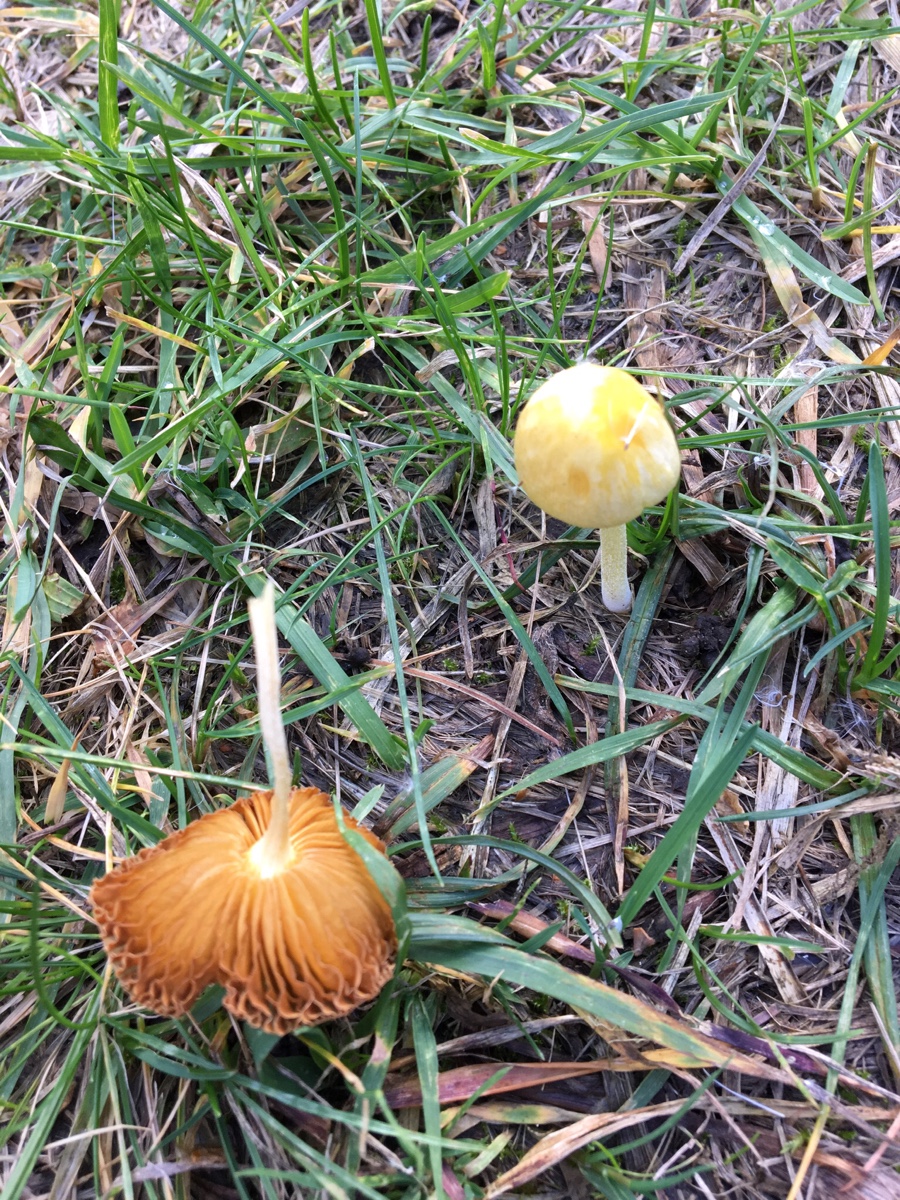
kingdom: Fungi
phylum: Basidiomycota
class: Agaricomycetes
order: Agaricales
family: Bolbitiaceae
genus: Bolbitius
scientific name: Bolbitius titubans
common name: almindelig gulhat
